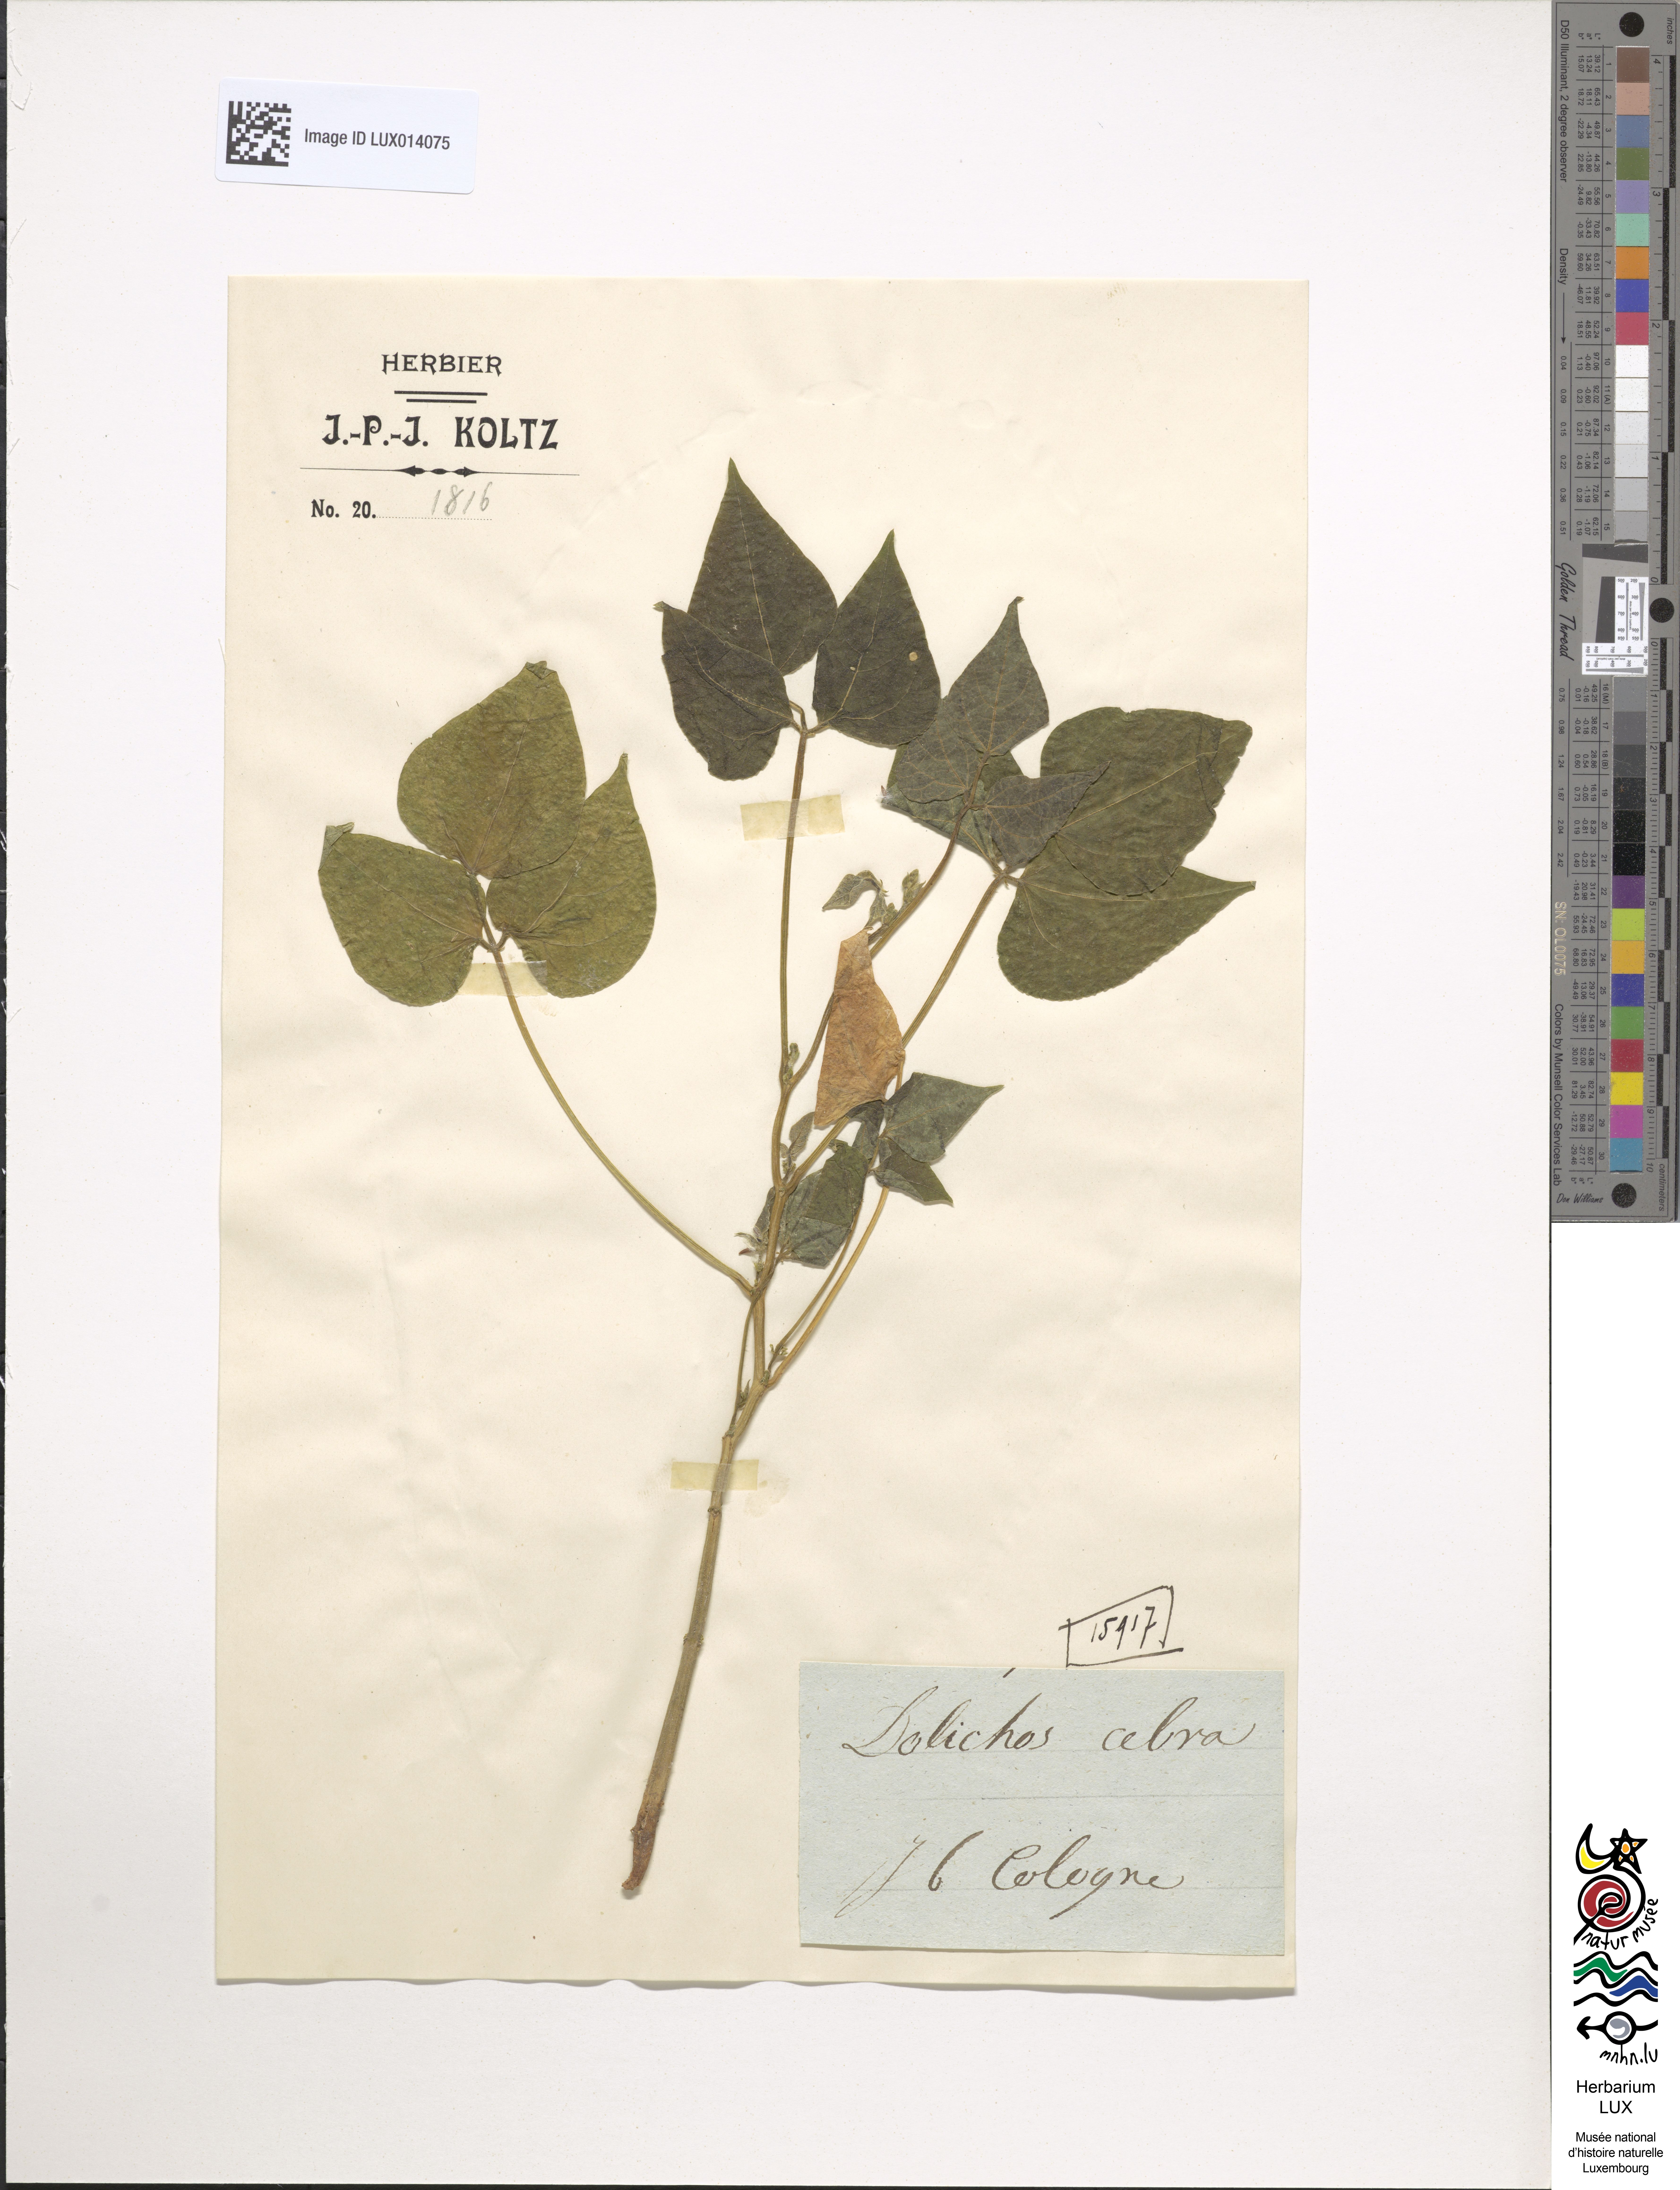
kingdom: Plantae
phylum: Tracheophyta
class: Magnoliopsida
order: Fabales
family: Fabaceae
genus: Dolichos
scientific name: Dolichos
